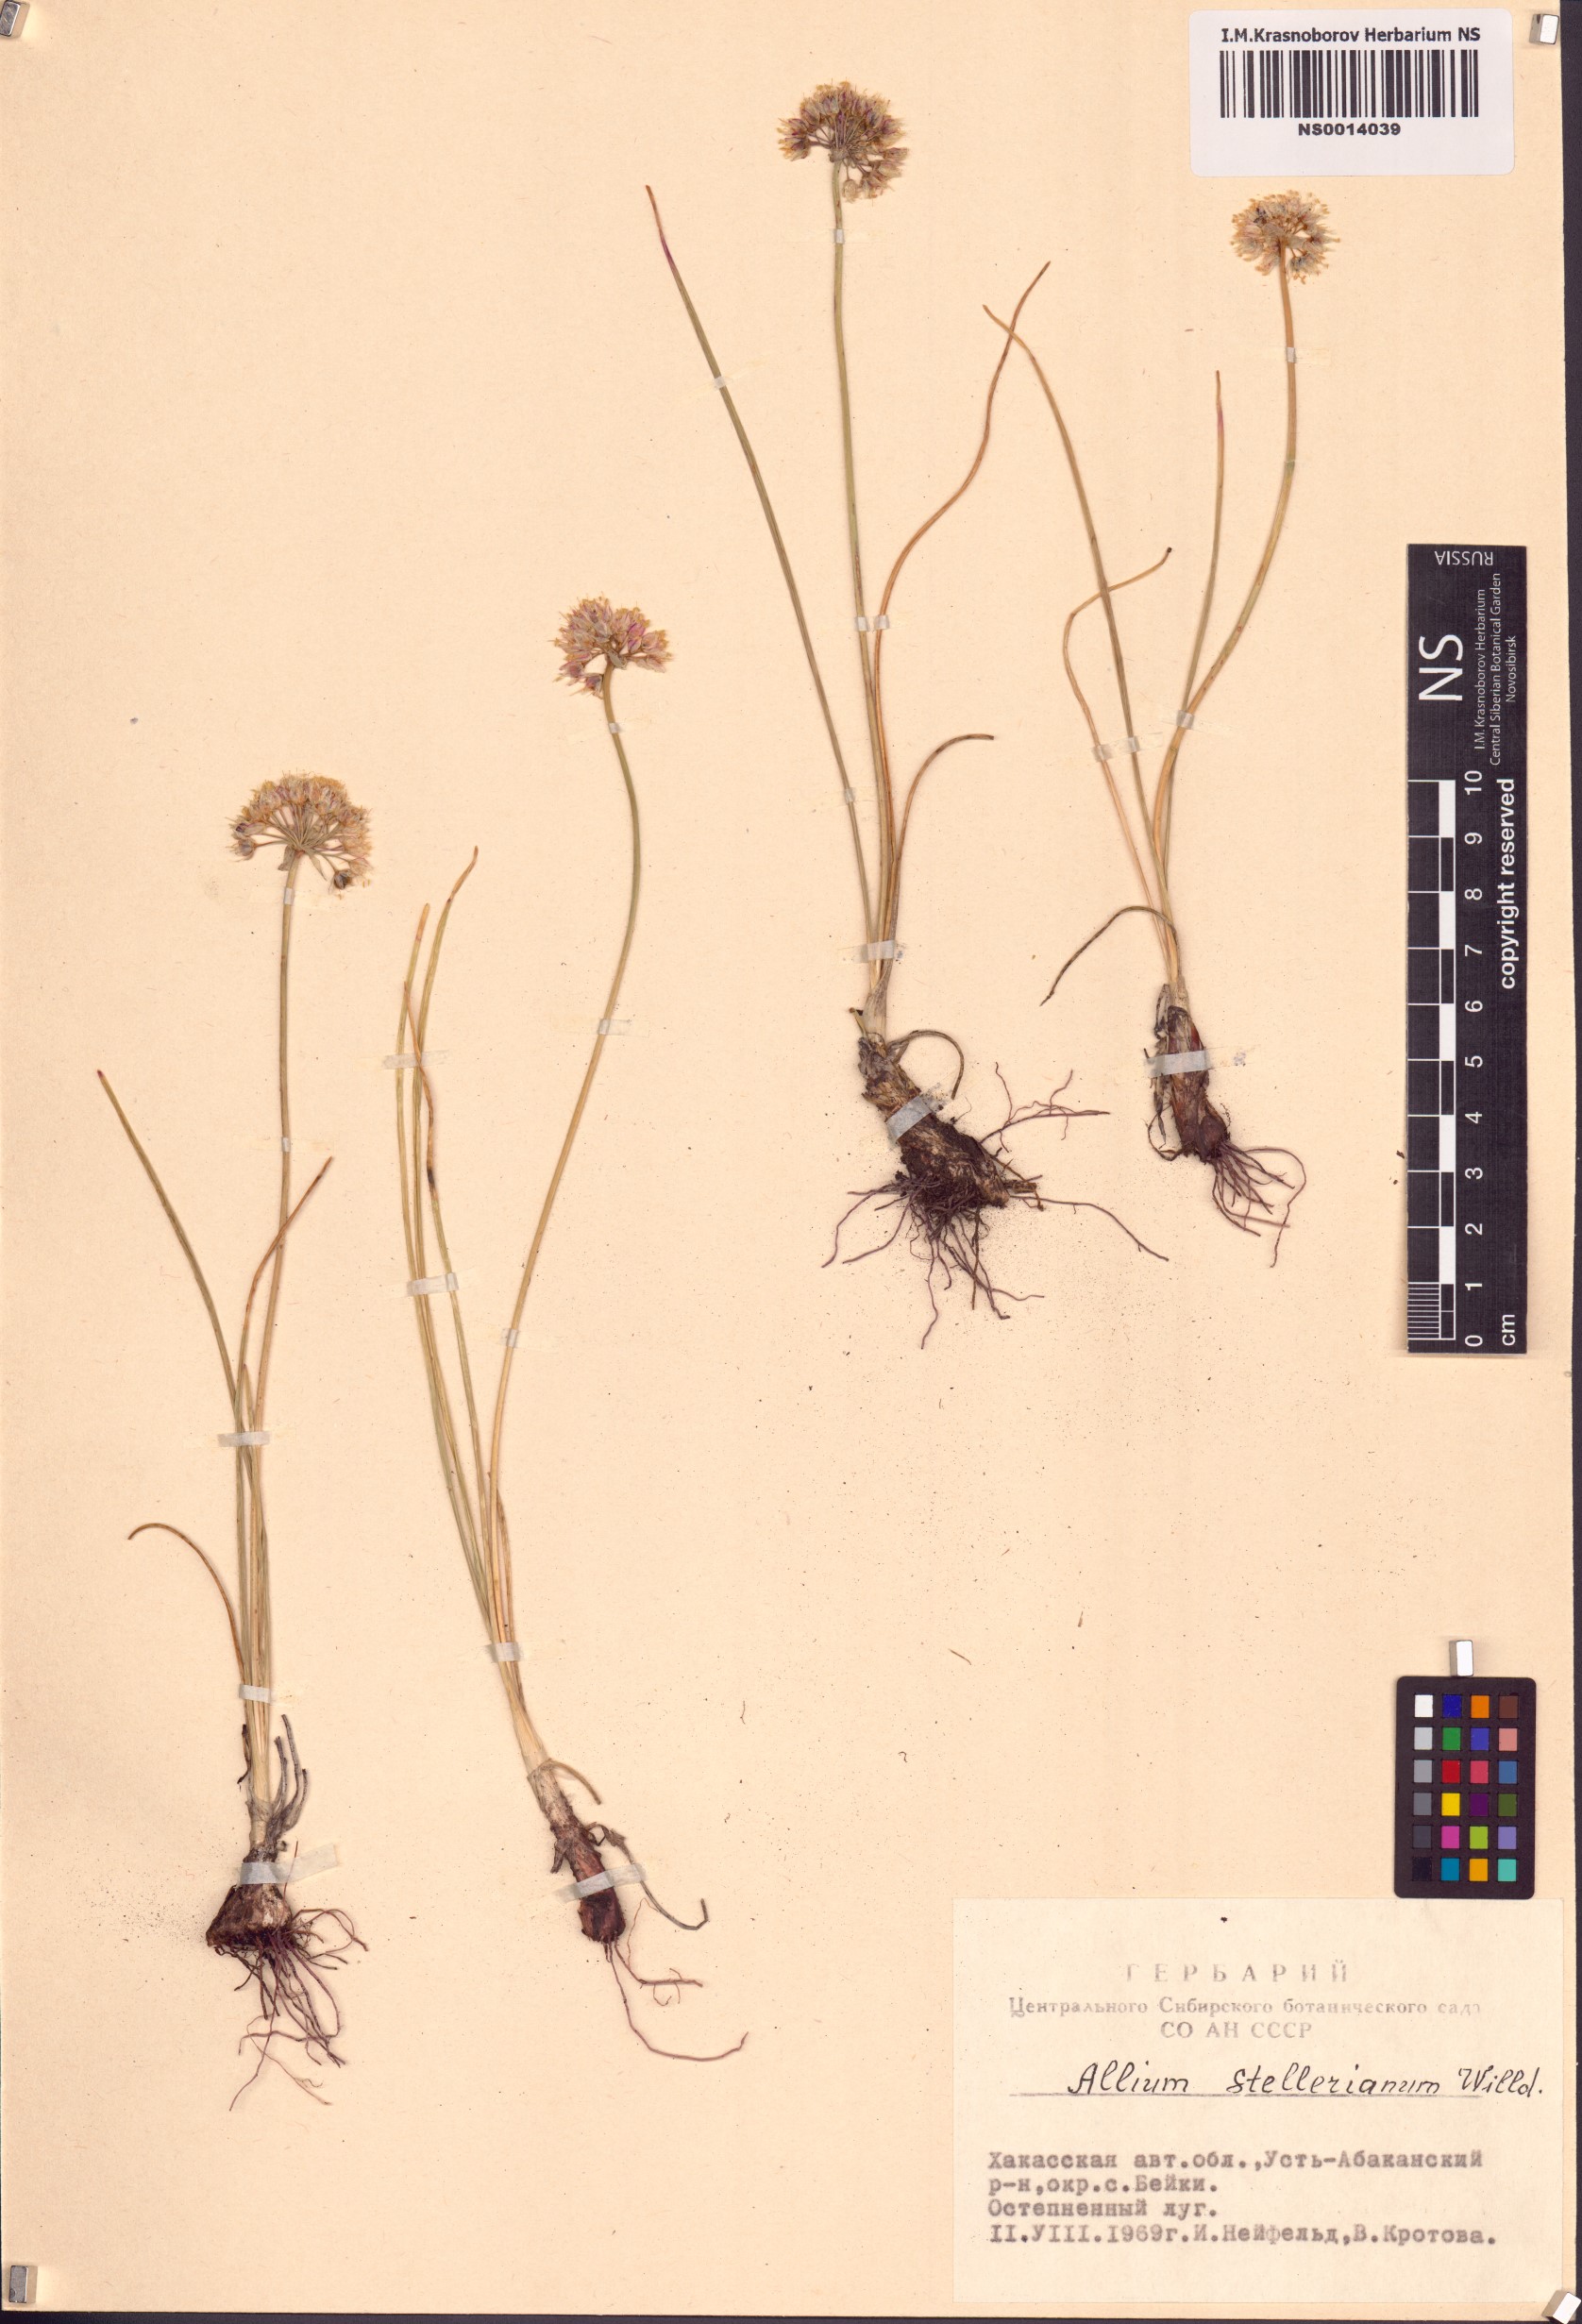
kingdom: Plantae
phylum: Tracheophyta
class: Liliopsida
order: Asparagales
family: Amaryllidaceae
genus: Allium
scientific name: Allium stellerianum
